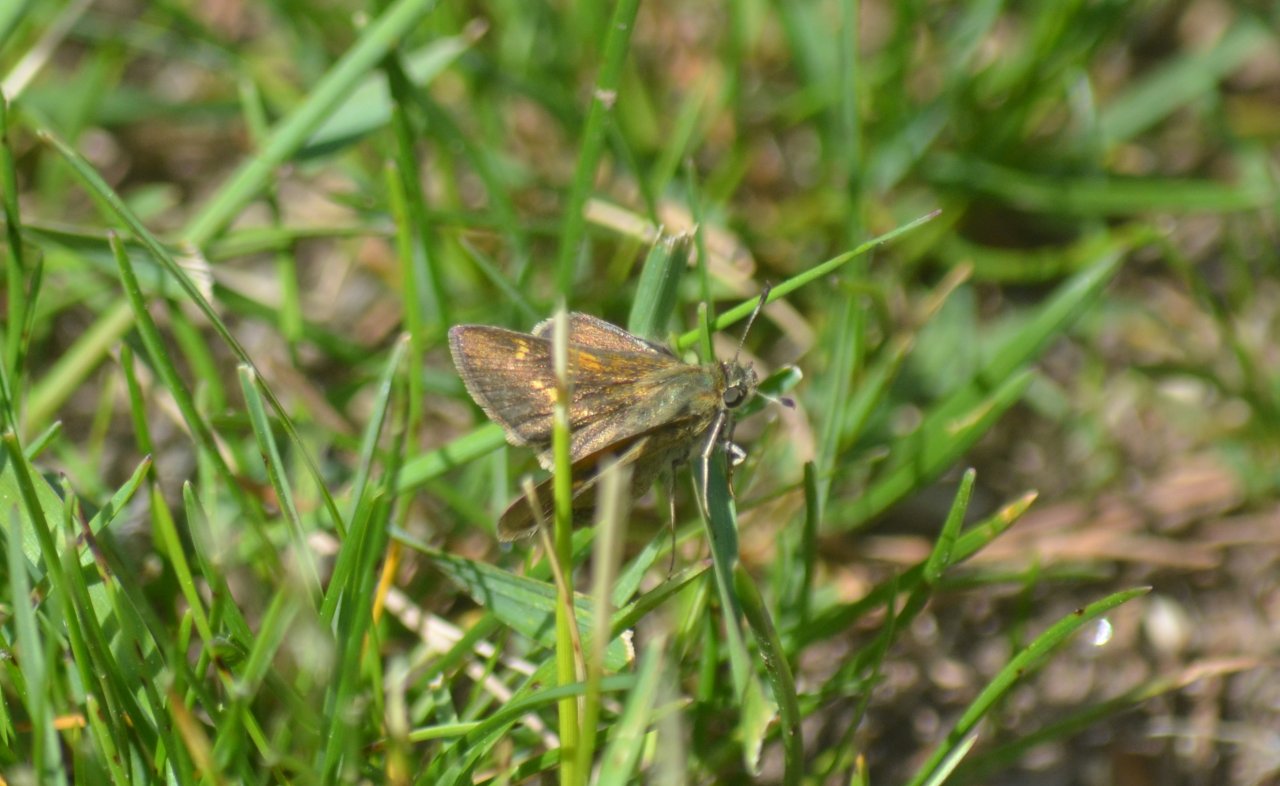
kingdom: Animalia
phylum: Arthropoda
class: Insecta
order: Lepidoptera
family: Hesperiidae
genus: Polites
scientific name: Polites themistocles
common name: Tawny-edged Skipper
